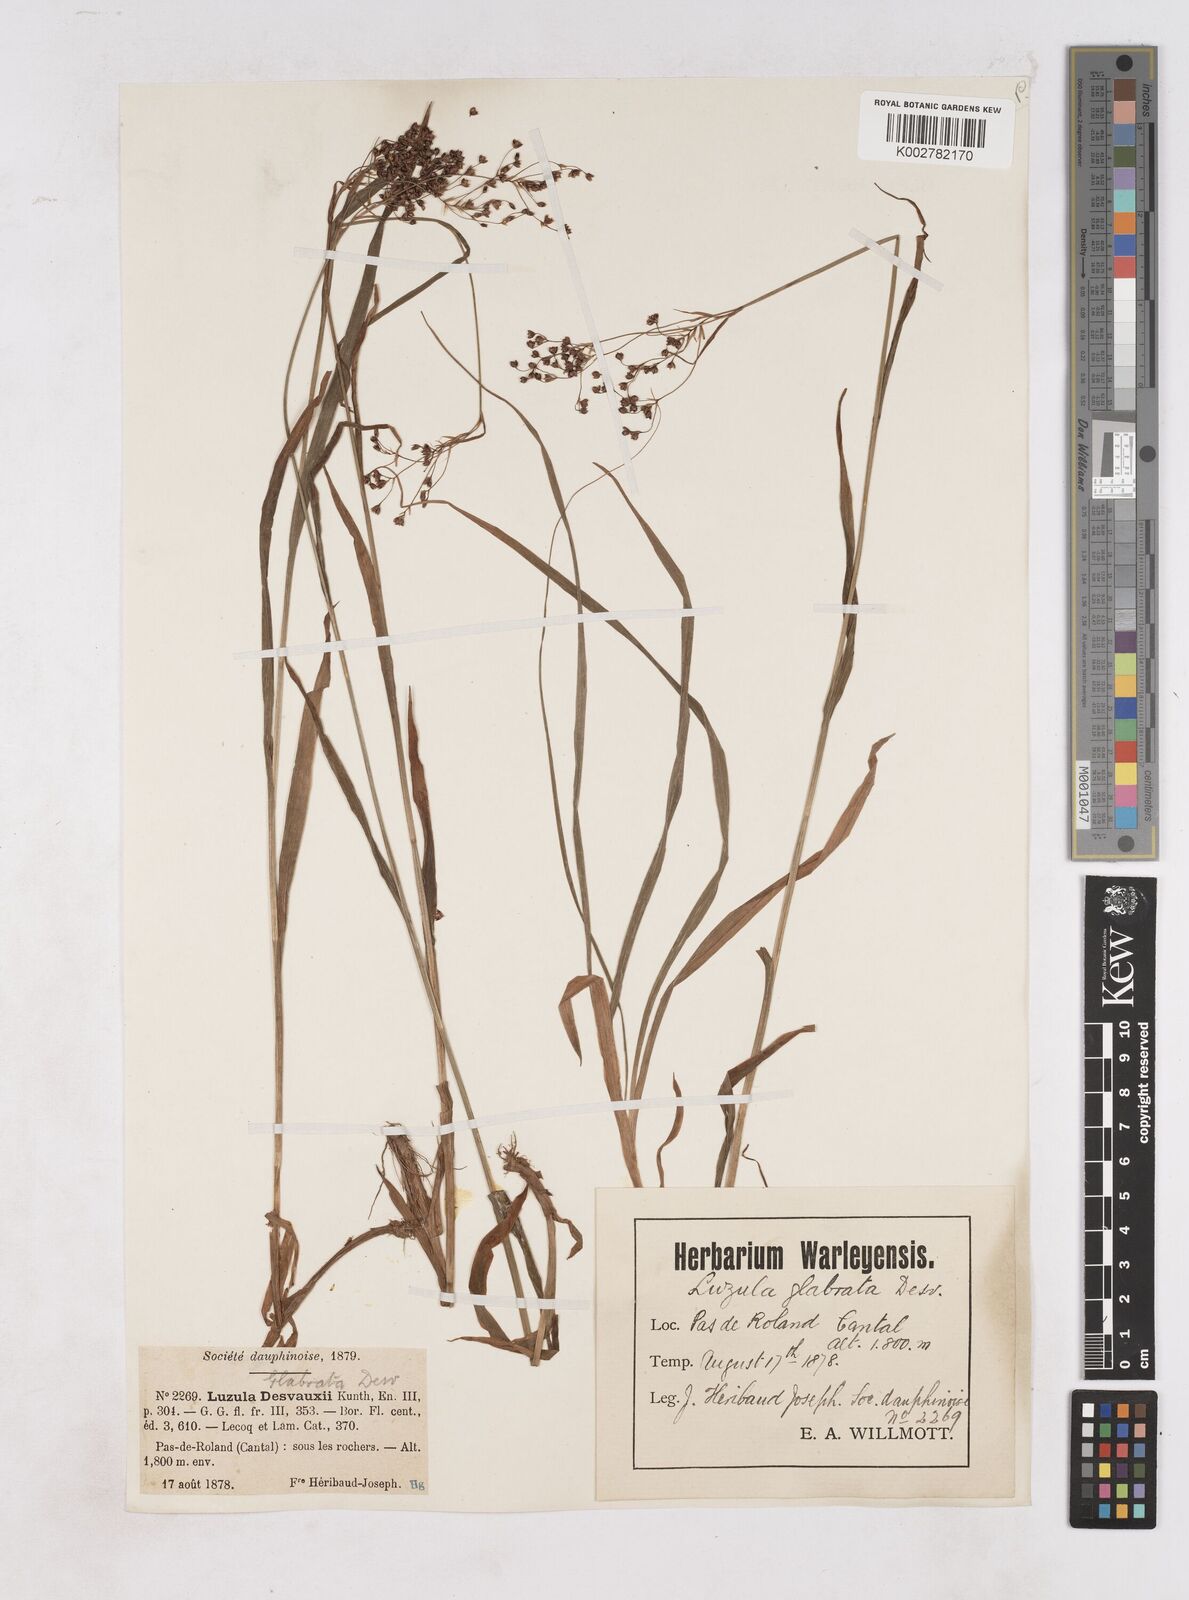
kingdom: Plantae
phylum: Tracheophyta
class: Liliopsida
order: Poales
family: Juncaceae
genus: Luzula
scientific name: Luzula glabrata
